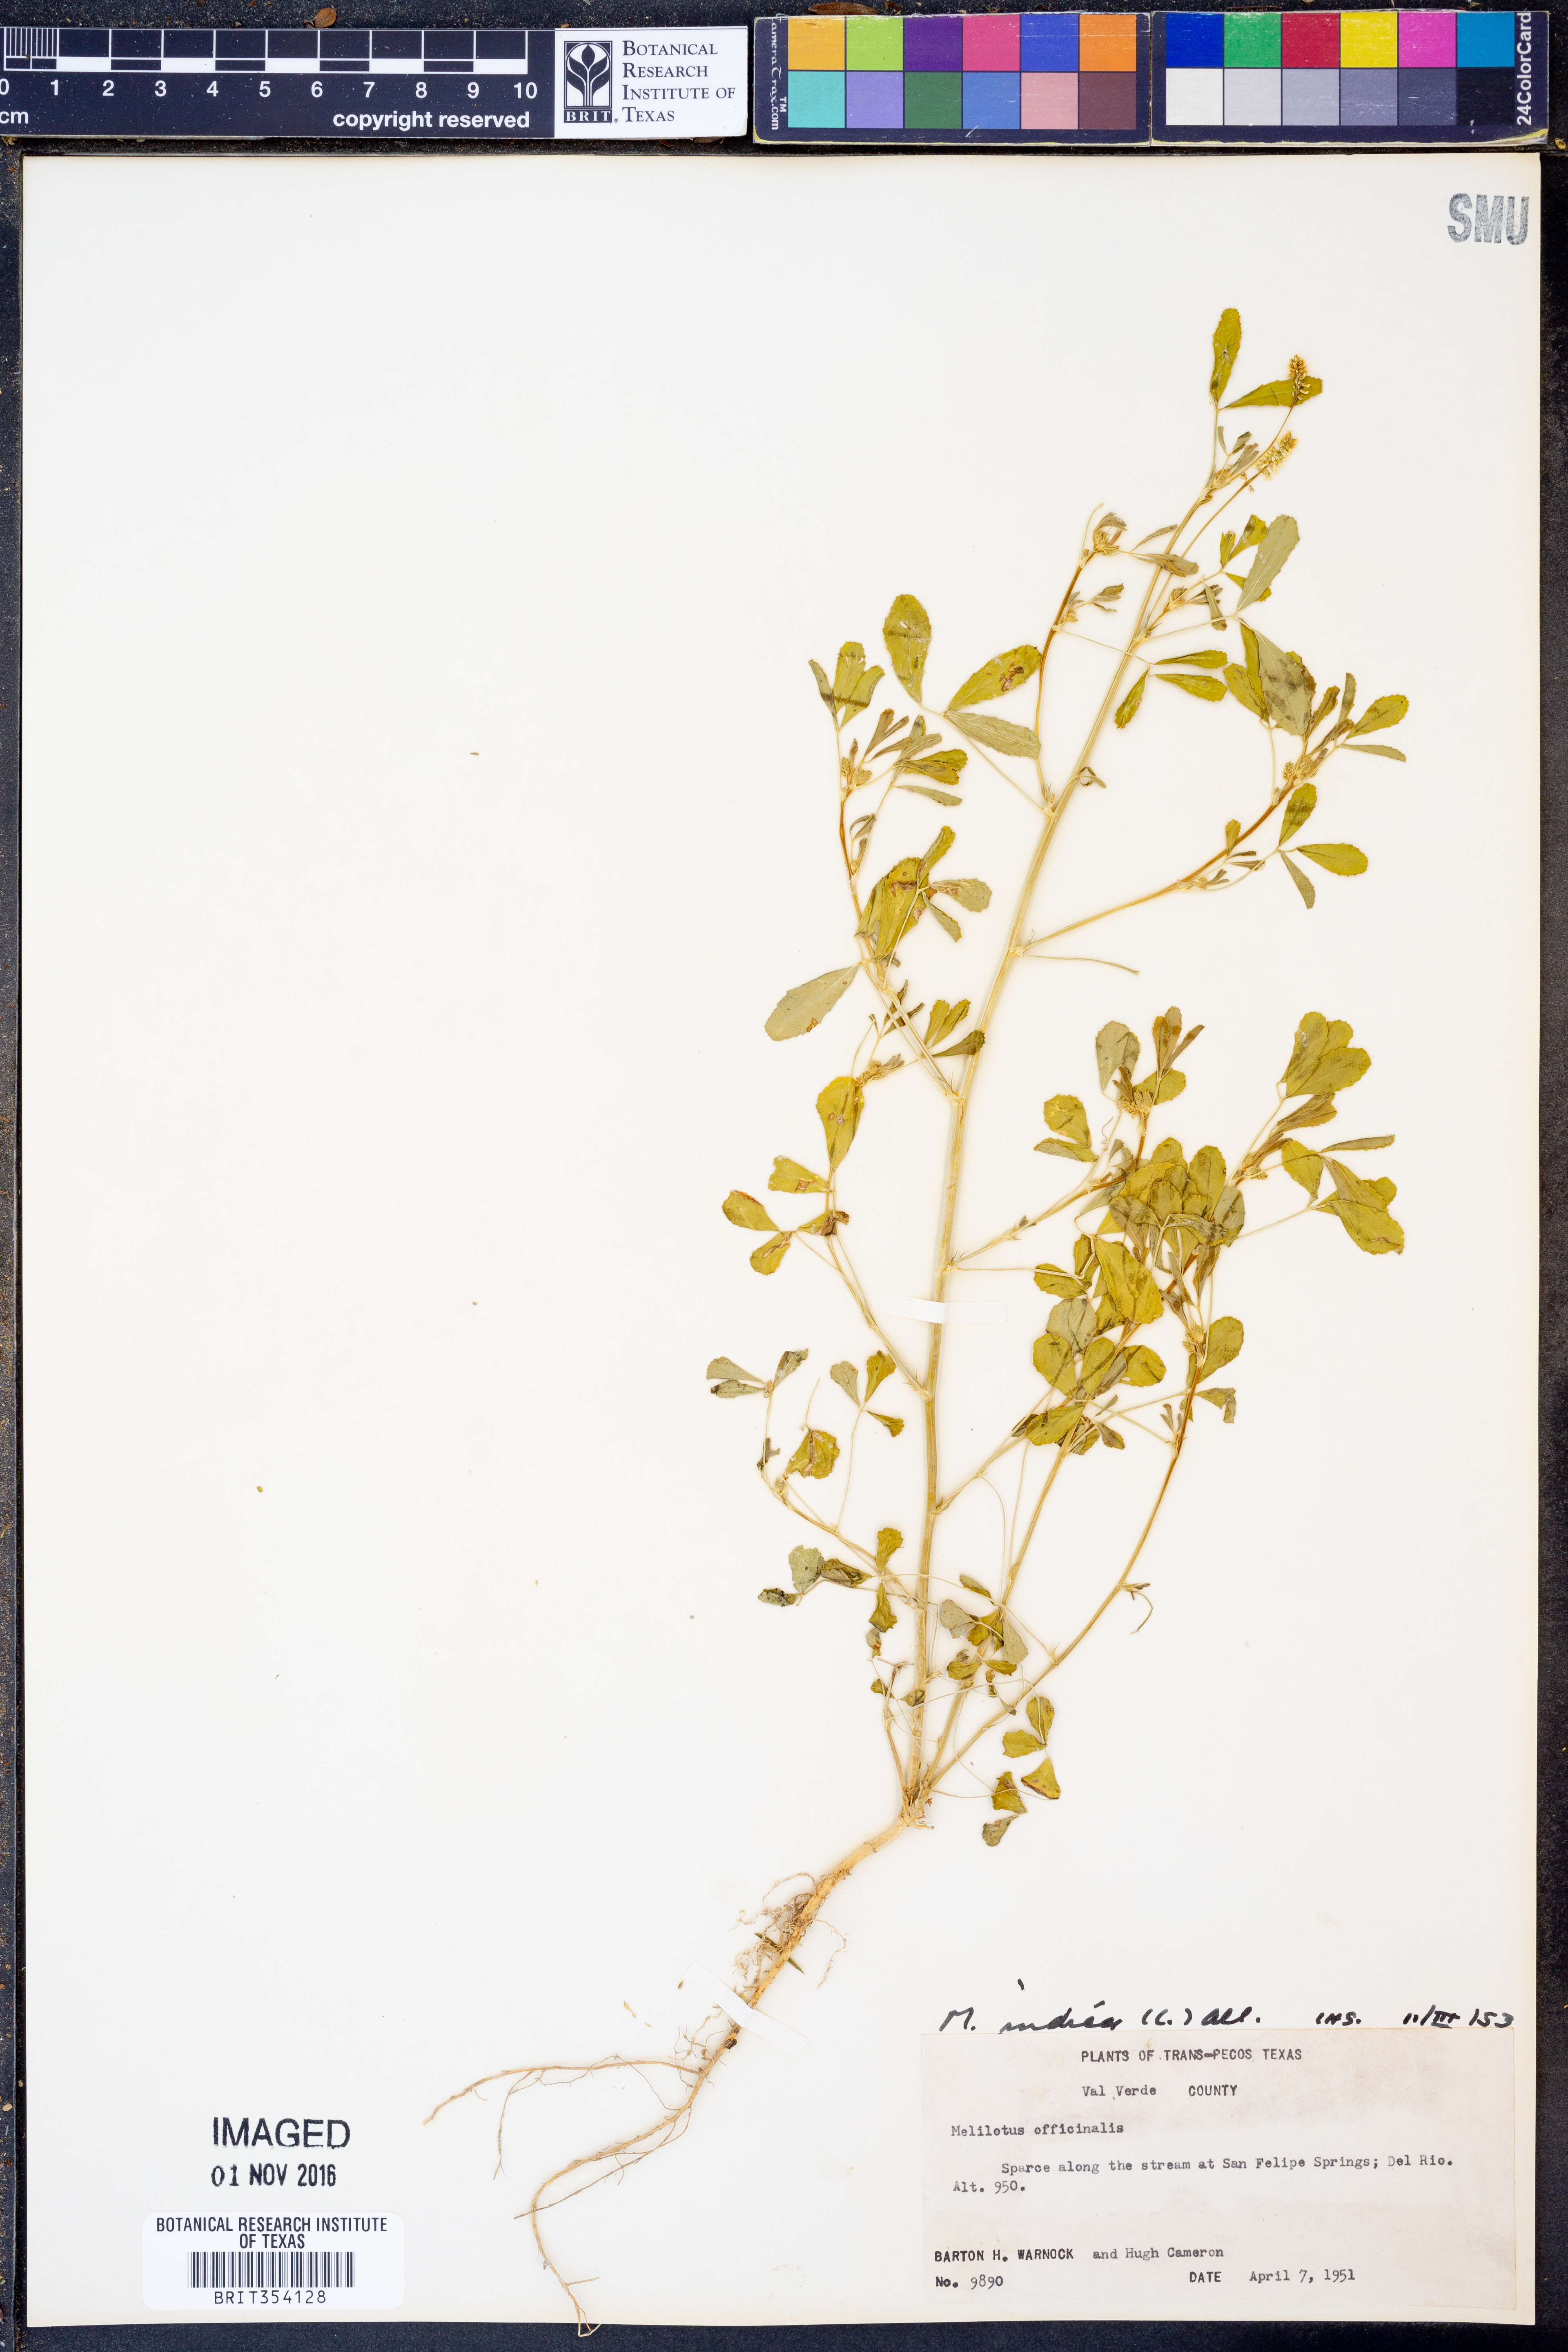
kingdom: Plantae
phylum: Tracheophyta
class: Magnoliopsida
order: Fabales
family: Fabaceae
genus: Melilotus
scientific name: Melilotus indicus
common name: Small melilot
